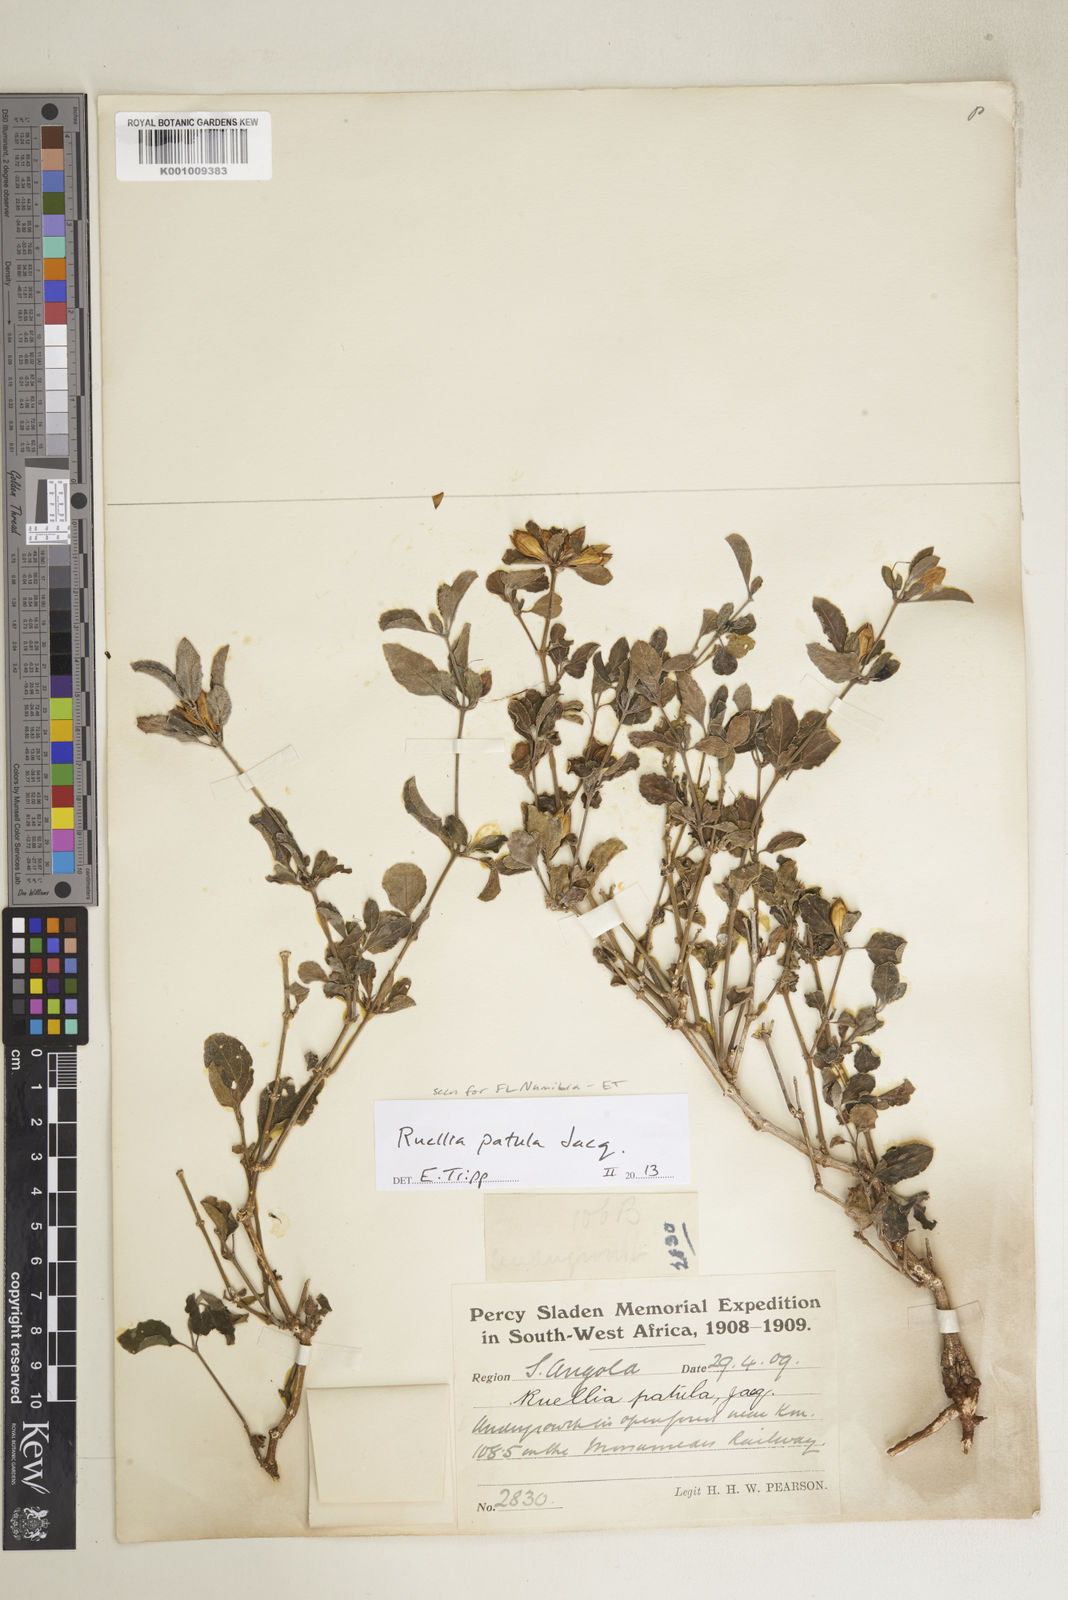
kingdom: Plantae
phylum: Tracheophyta
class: Magnoliopsida
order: Lamiales
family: Acanthaceae
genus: Ruellia
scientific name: Ruellia patula
